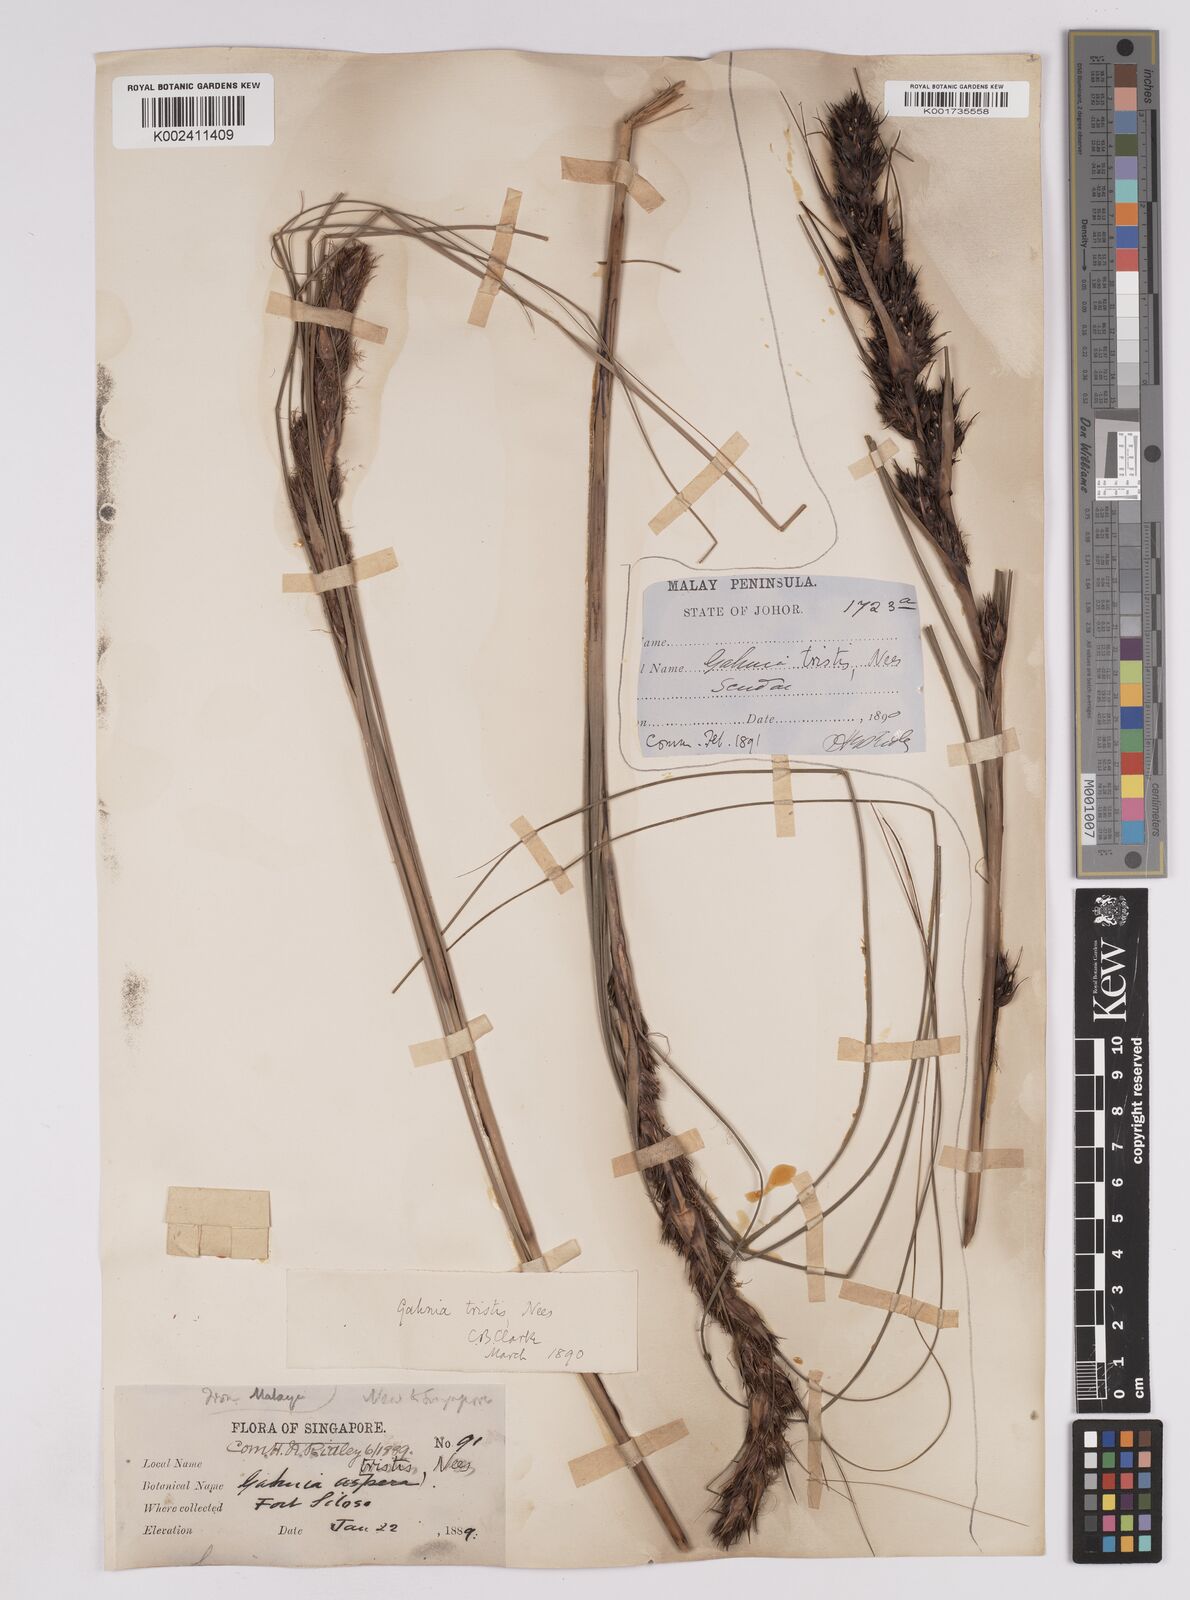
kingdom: Plantae
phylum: Tracheophyta
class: Liliopsida
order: Poales
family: Cyperaceae
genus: Gahnia
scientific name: Gahnia tristis
